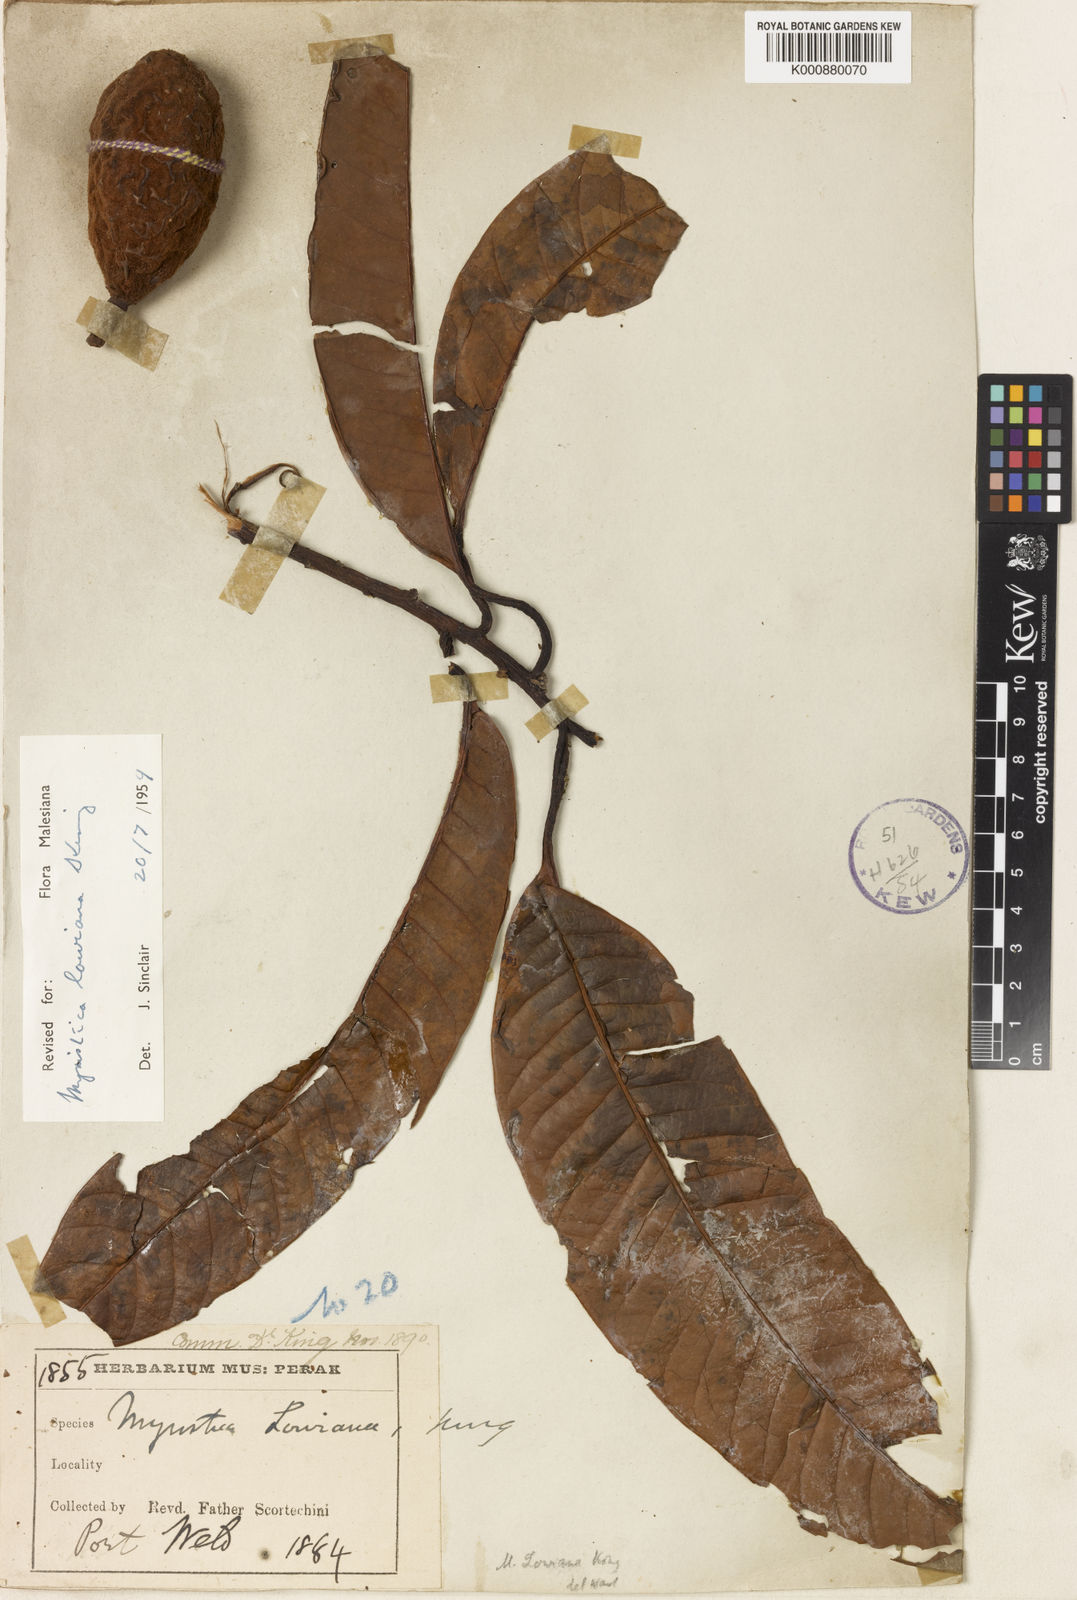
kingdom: Plantae
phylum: Tracheophyta
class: Magnoliopsida
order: Magnoliales
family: Myristicaceae
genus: Myristica
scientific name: Myristica lowiana
